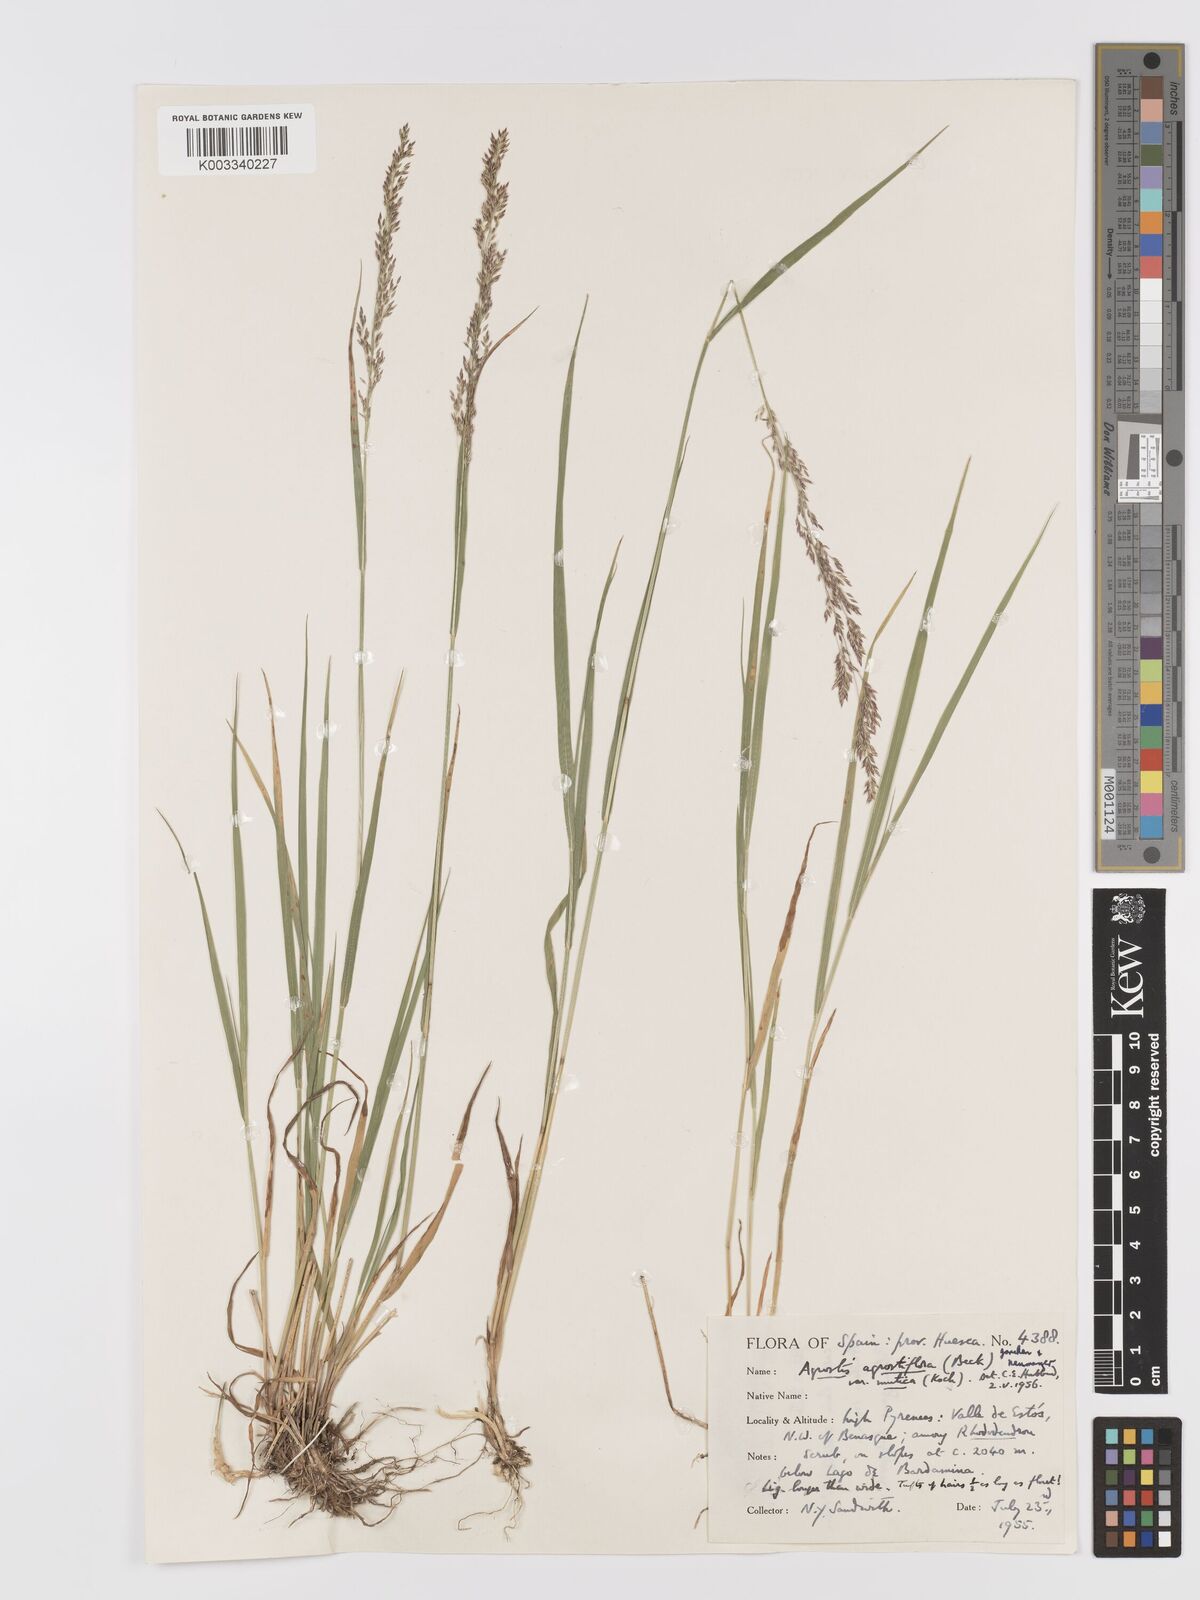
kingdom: Plantae
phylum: Tracheophyta
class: Liliopsida
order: Poales
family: Poaceae
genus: Agrostis
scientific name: Agrostis schraderiana
